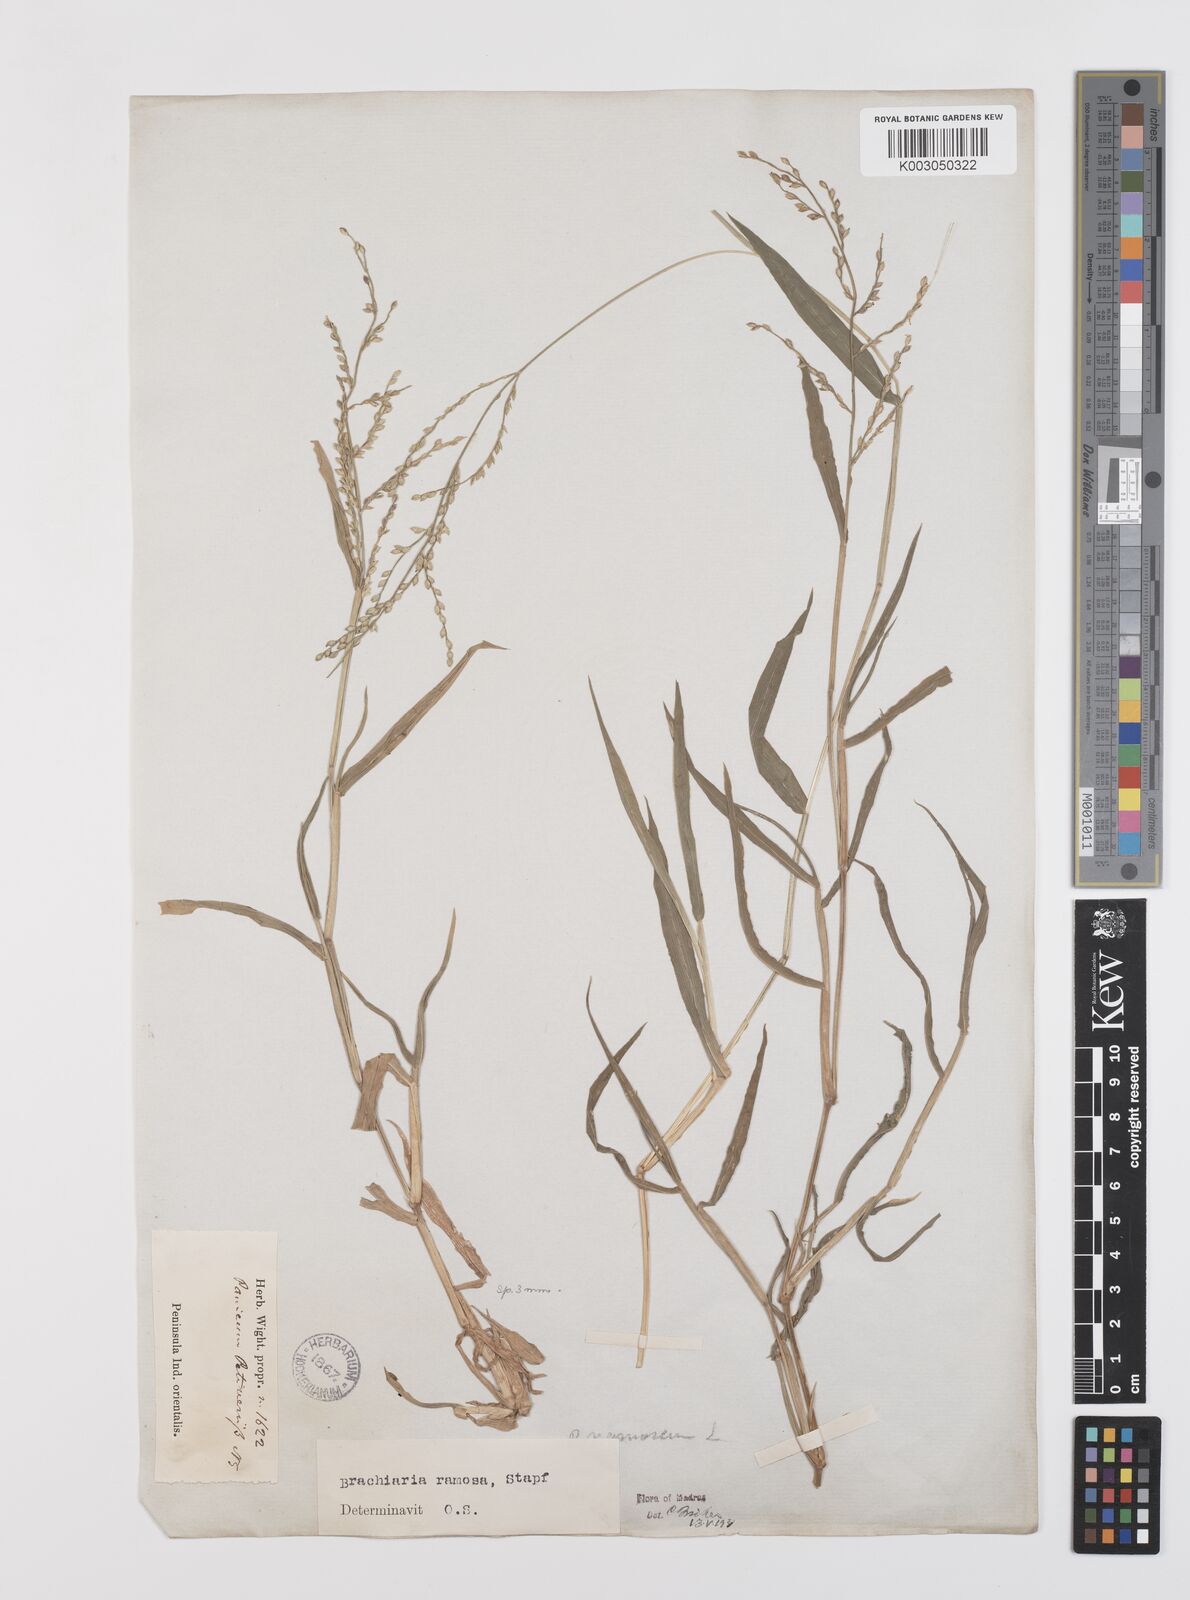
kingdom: Plantae
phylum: Tracheophyta
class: Liliopsida
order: Poales
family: Poaceae
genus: Urochloa
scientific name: Urochloa ramosa
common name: Browntop millet
